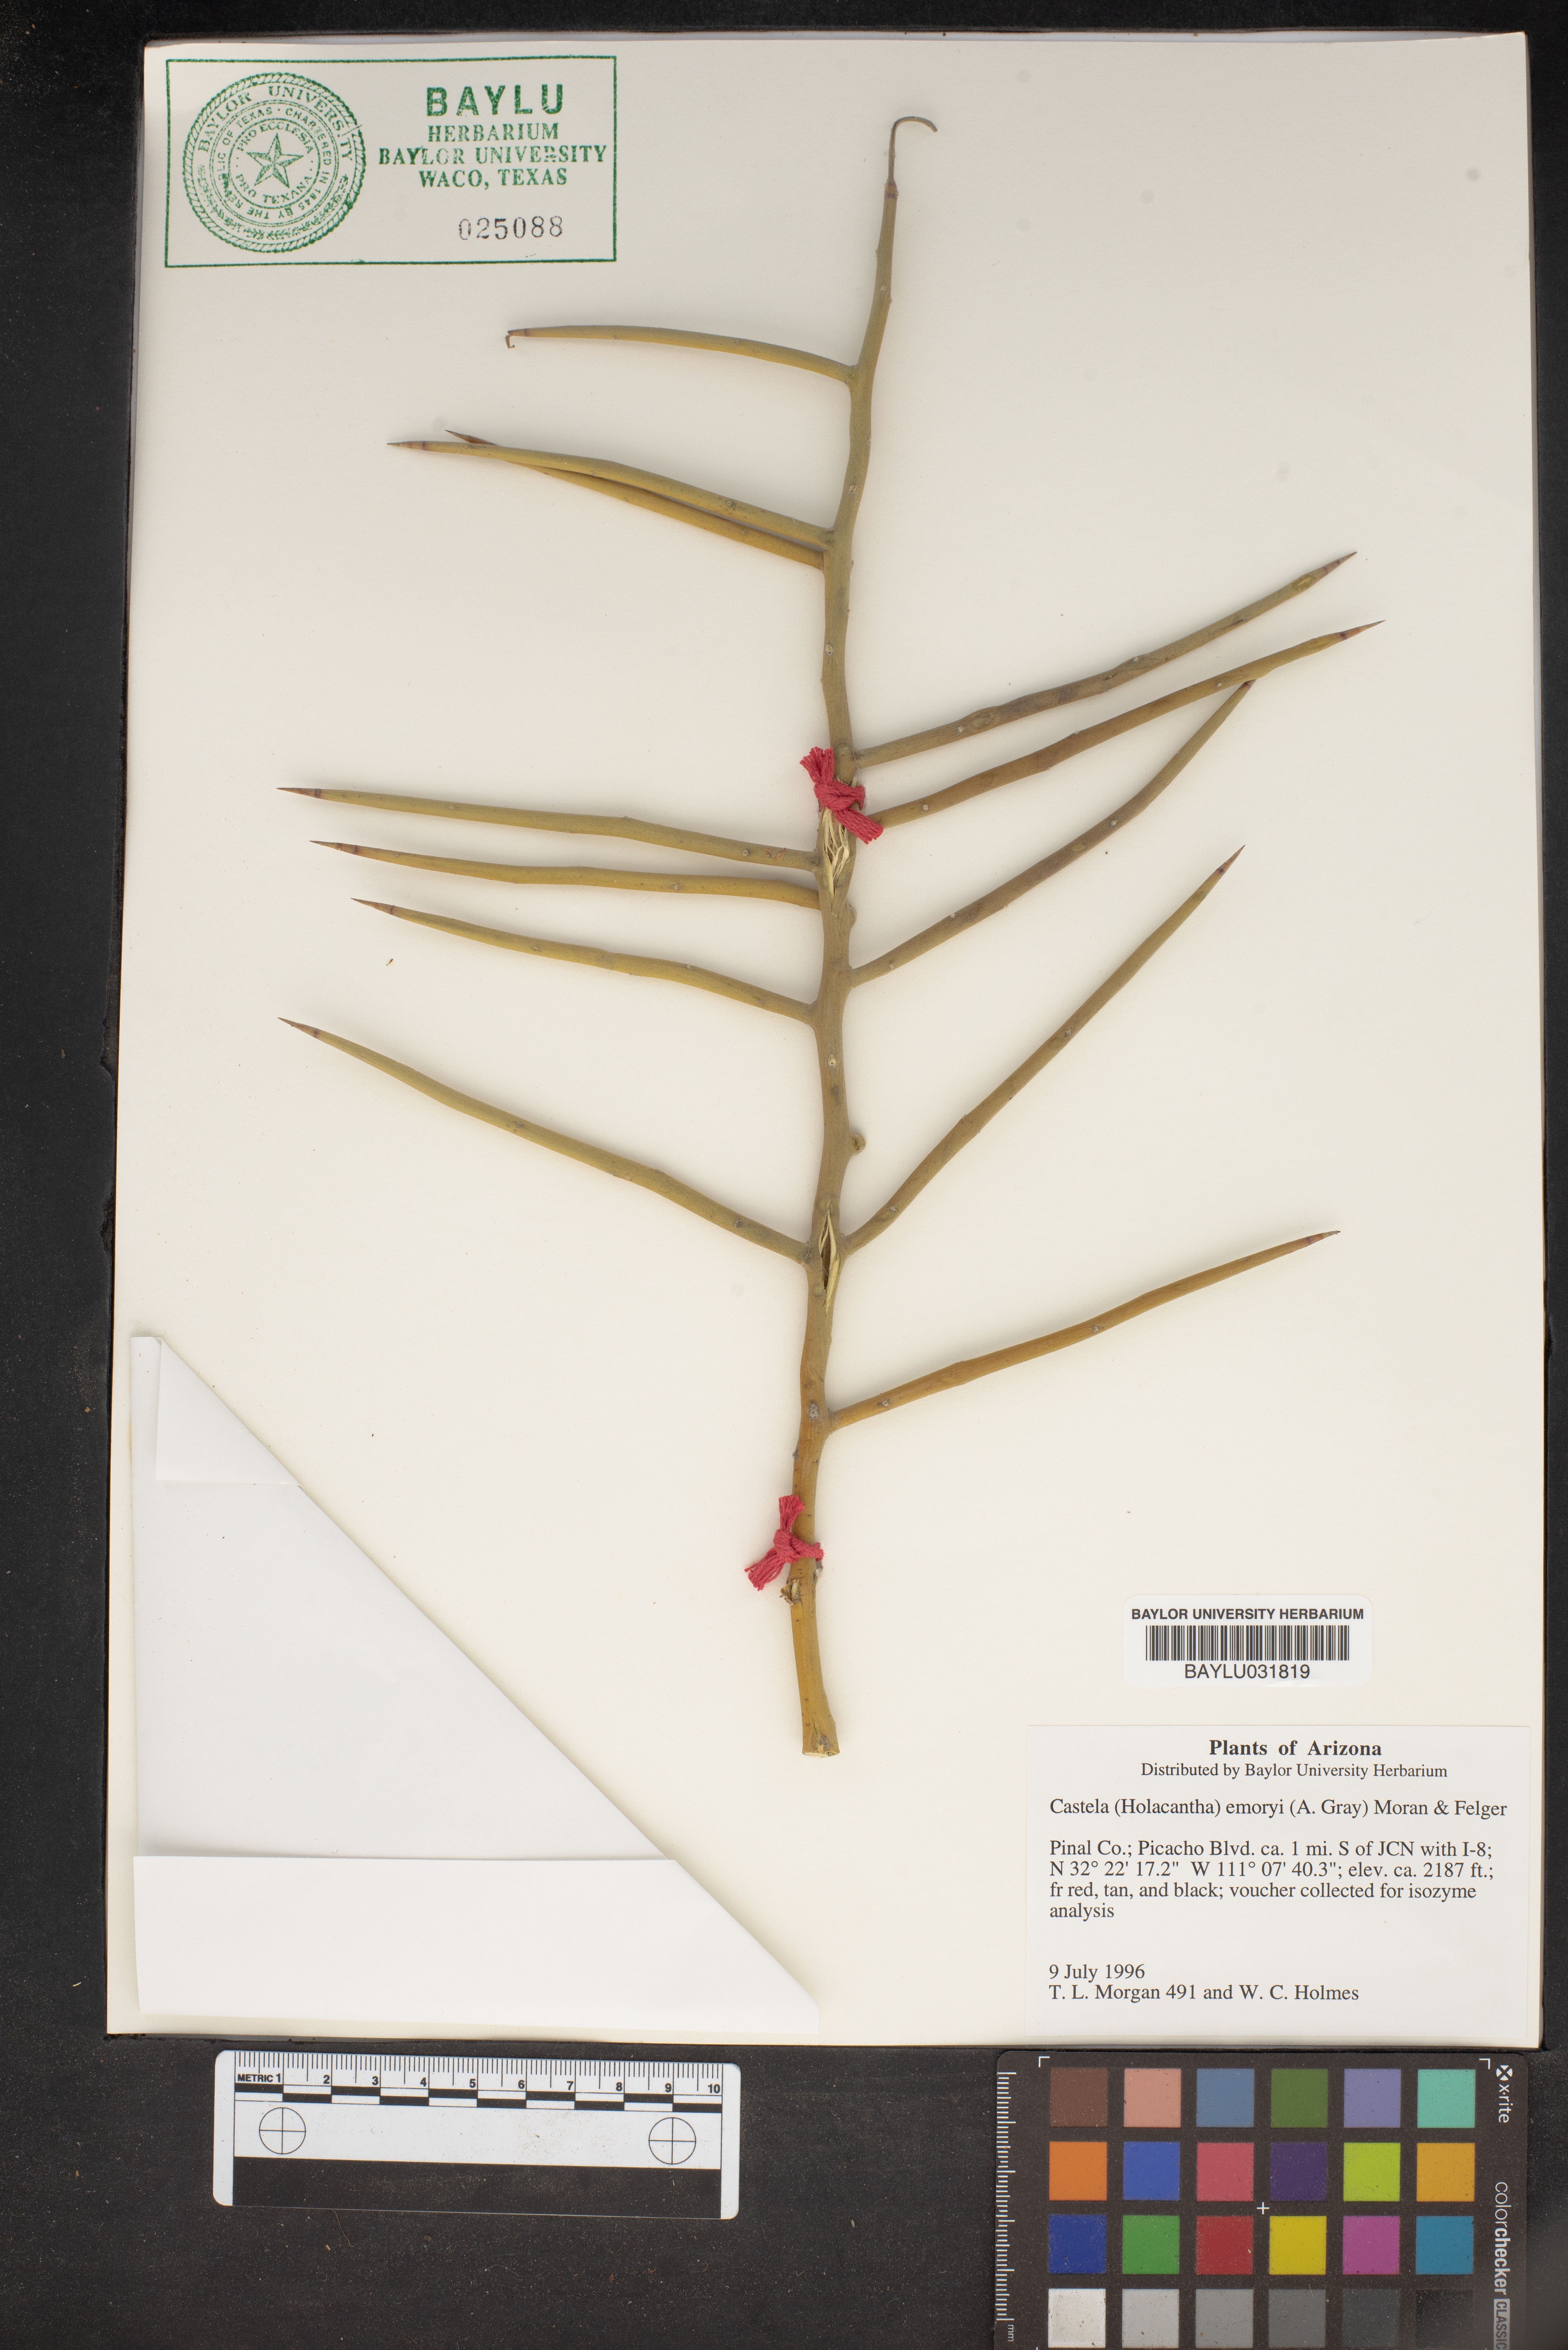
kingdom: Plantae
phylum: Tracheophyta
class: Magnoliopsida
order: Sapindales
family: Simaroubaceae
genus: Holacantha
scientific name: Holacantha emoryi
